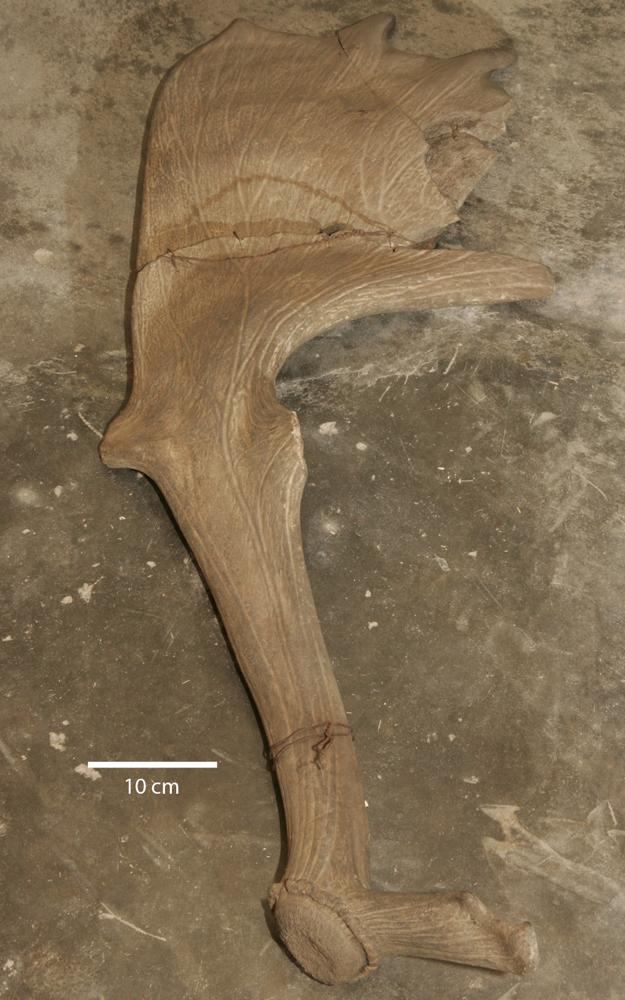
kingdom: Animalia
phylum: Chordata
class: Mammalia
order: Artiodactyla
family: Cervidae
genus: Megaloceros
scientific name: Megaloceros giganteus
